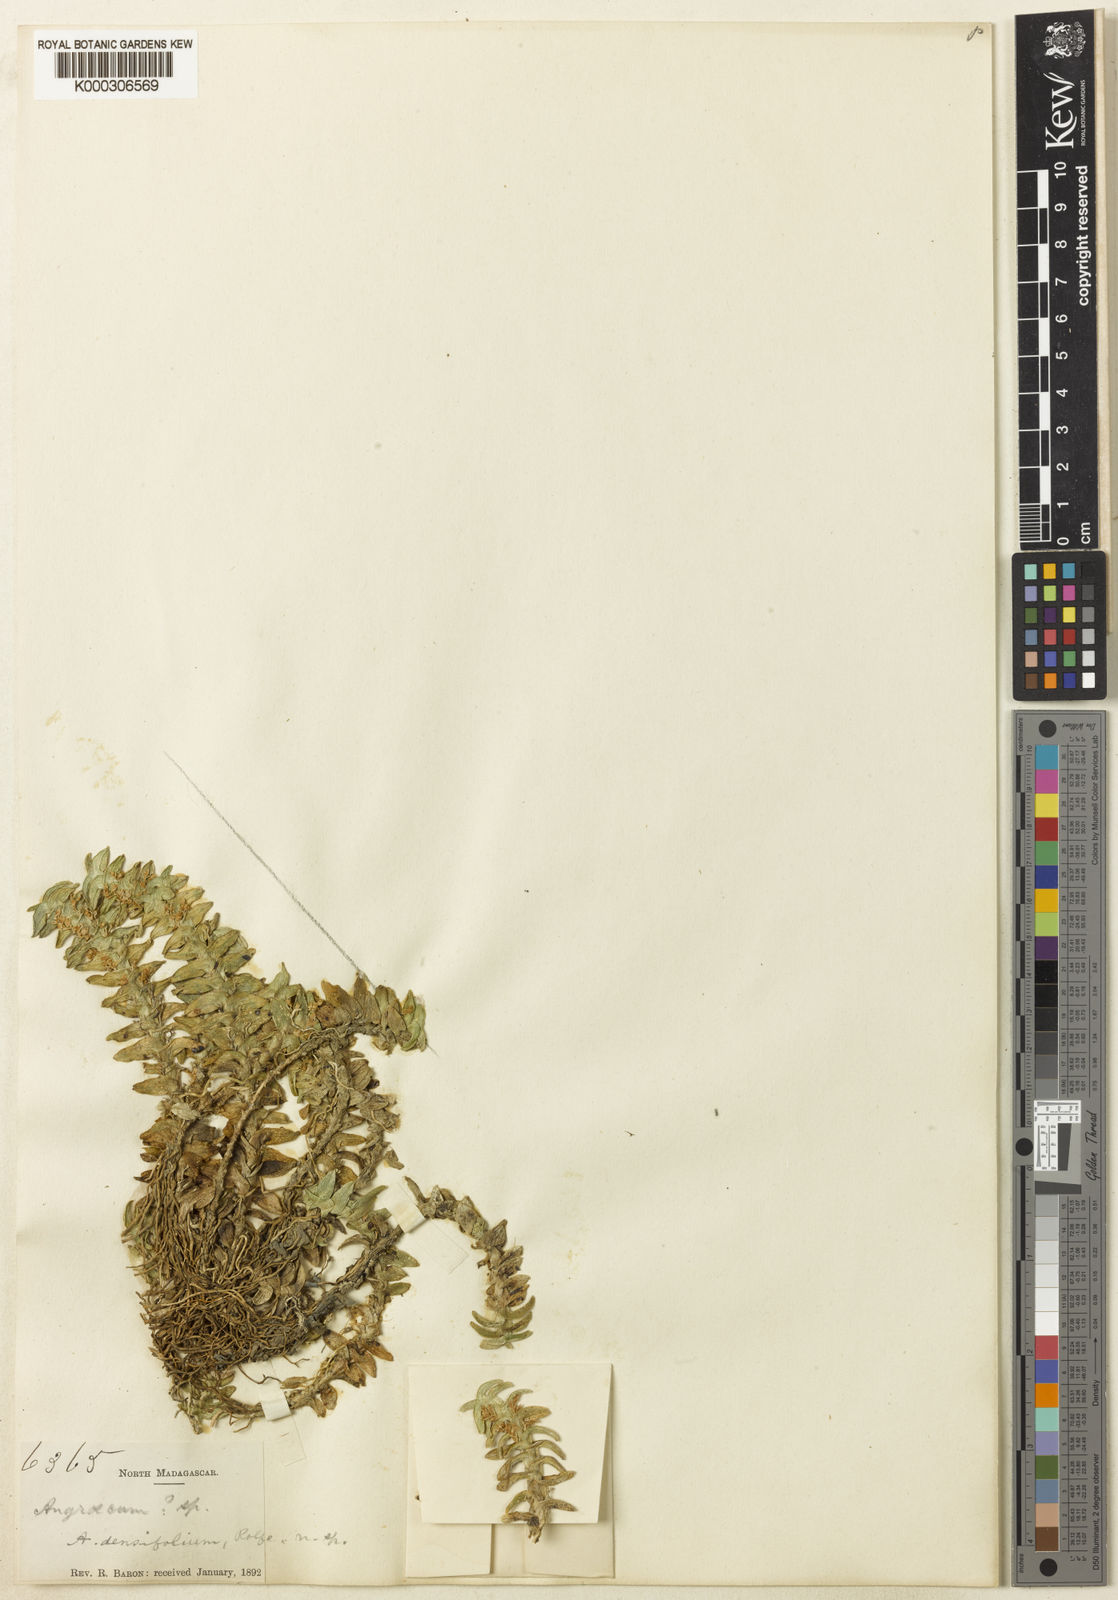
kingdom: Plantae
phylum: Tracheophyta
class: Liliopsida
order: Asparagales
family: Orchidaceae
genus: Angraecum
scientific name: Angraecum
